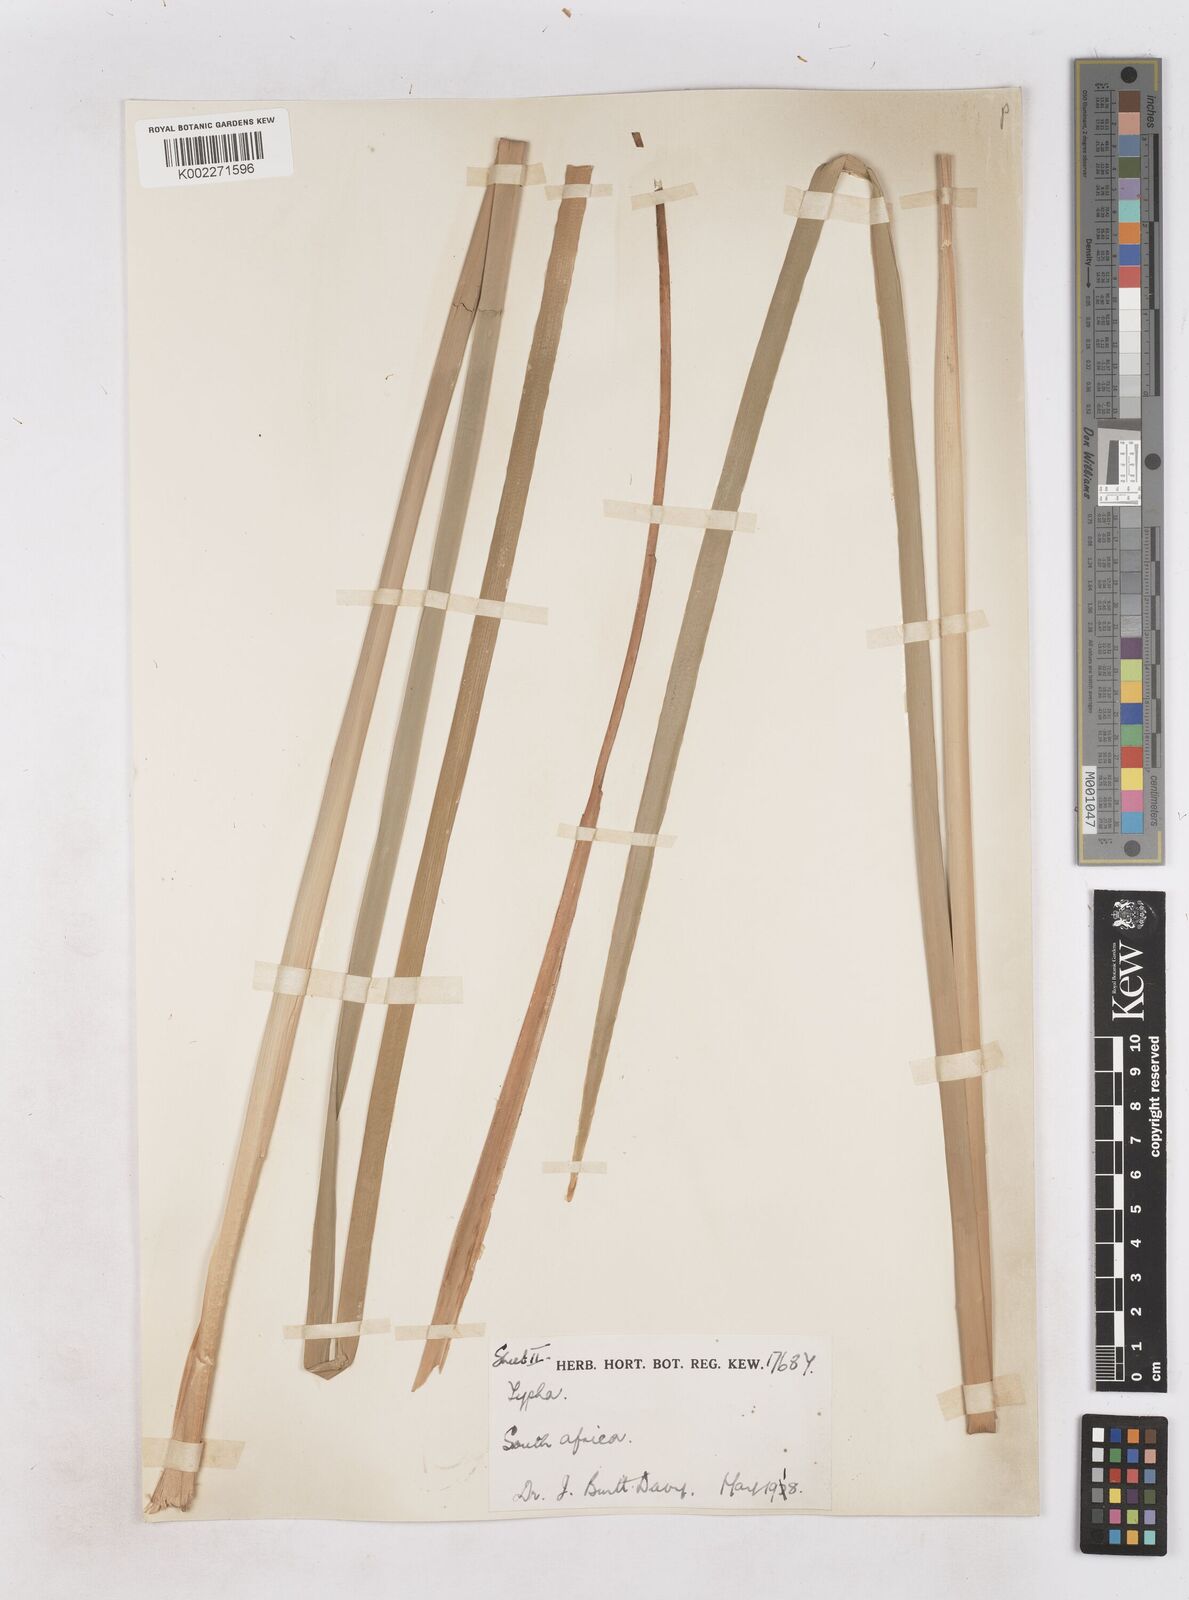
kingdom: Plantae
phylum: Tracheophyta
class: Liliopsida
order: Poales
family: Typhaceae
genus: Typha
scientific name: Typha capensis
